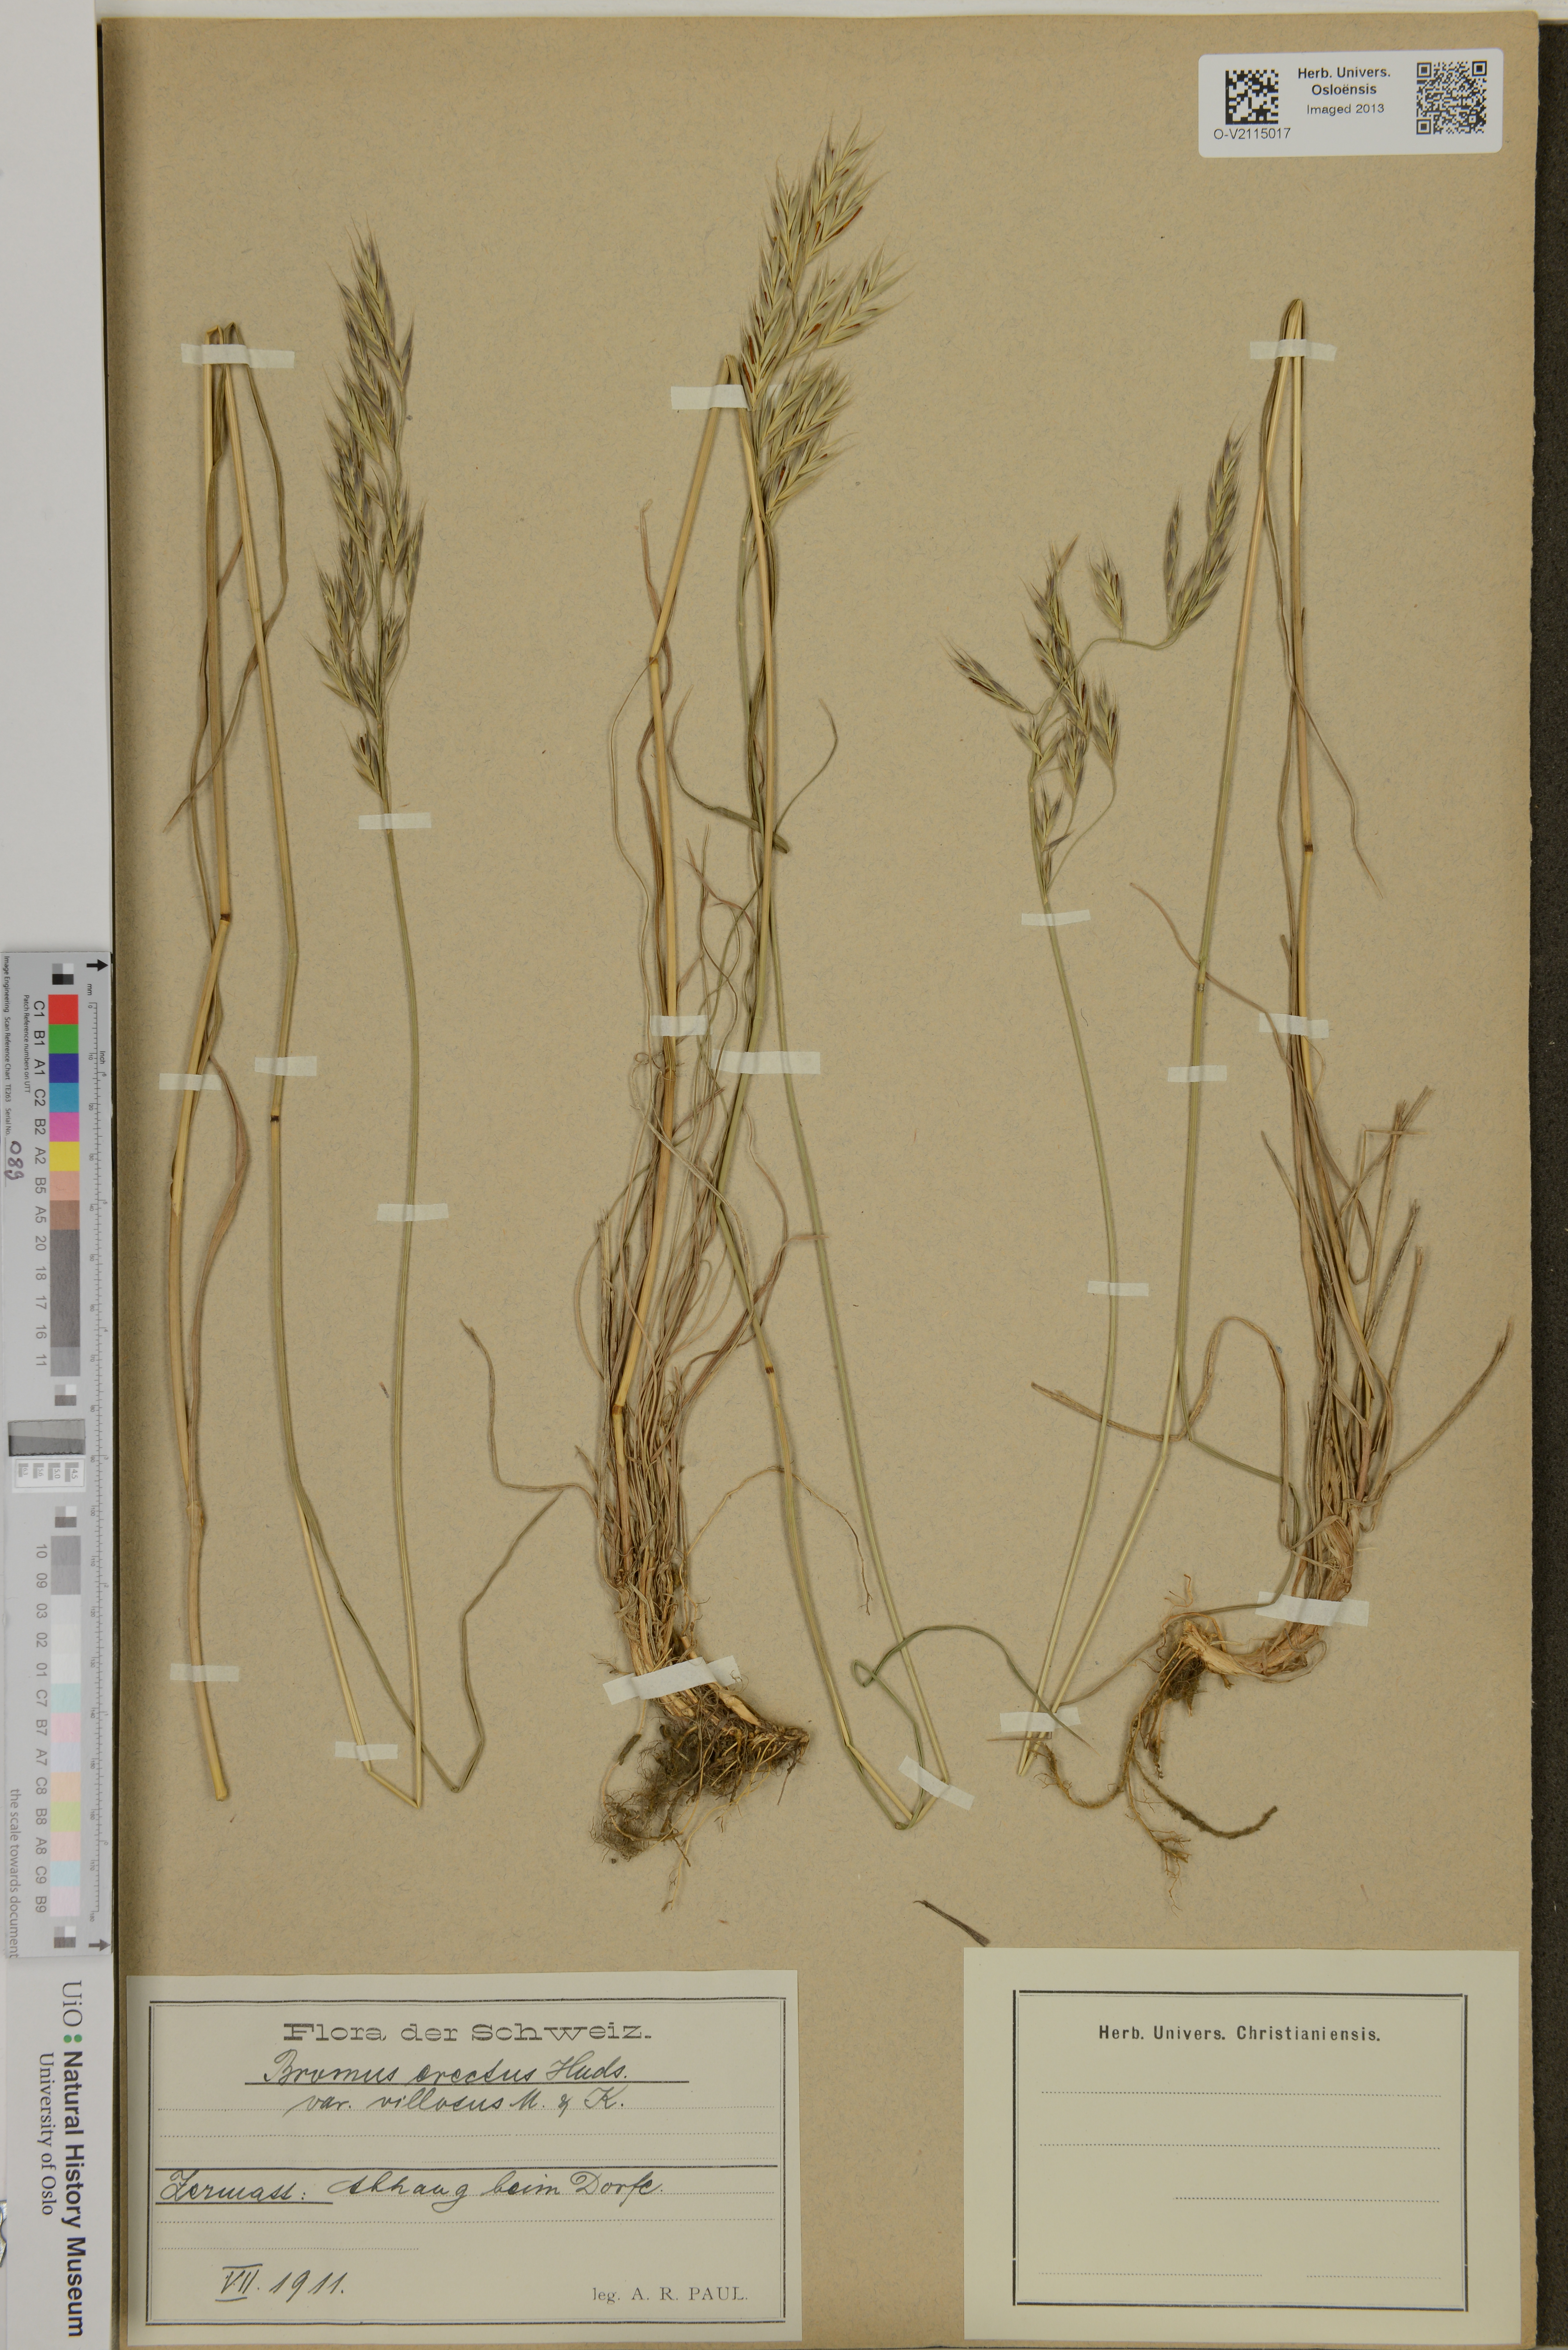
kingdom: Plantae
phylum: Tracheophyta
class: Liliopsida
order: Poales
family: Poaceae
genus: Bromus
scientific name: Bromus erectus
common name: Erect brome
